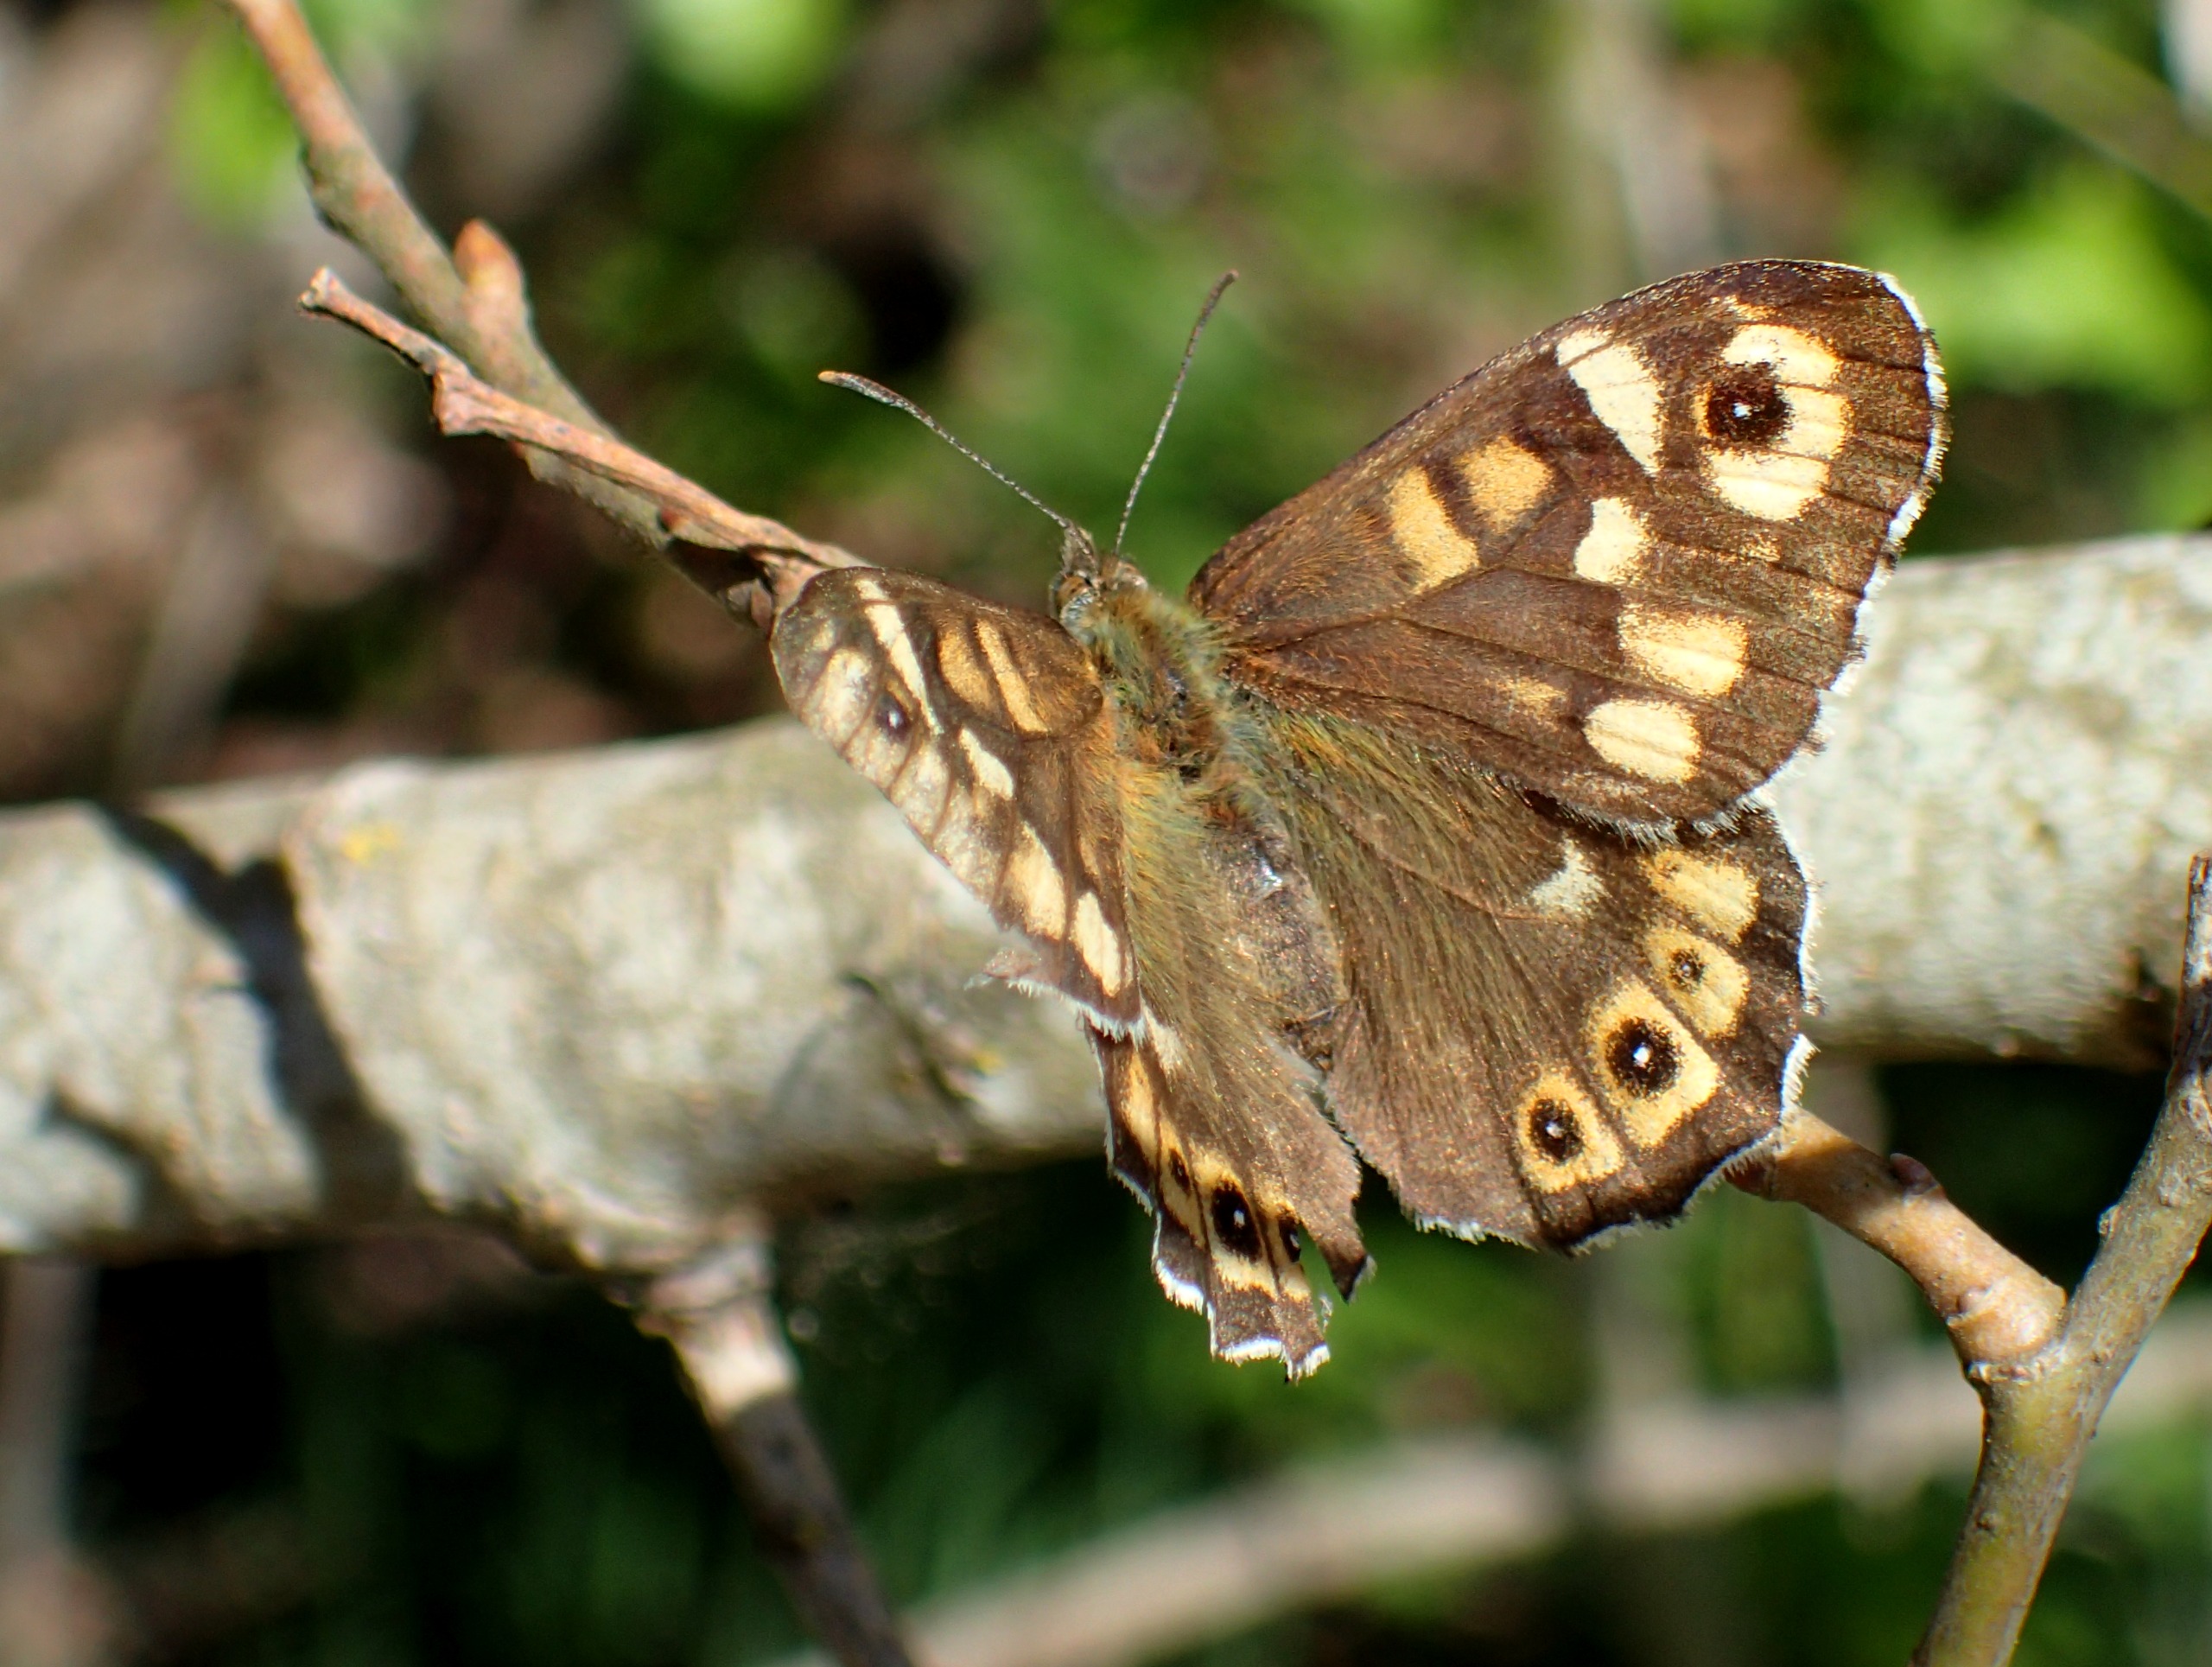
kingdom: Animalia
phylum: Arthropoda
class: Insecta
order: Lepidoptera
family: Nymphalidae
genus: Pararge
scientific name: Pararge aegeria
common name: Skovrandøje
